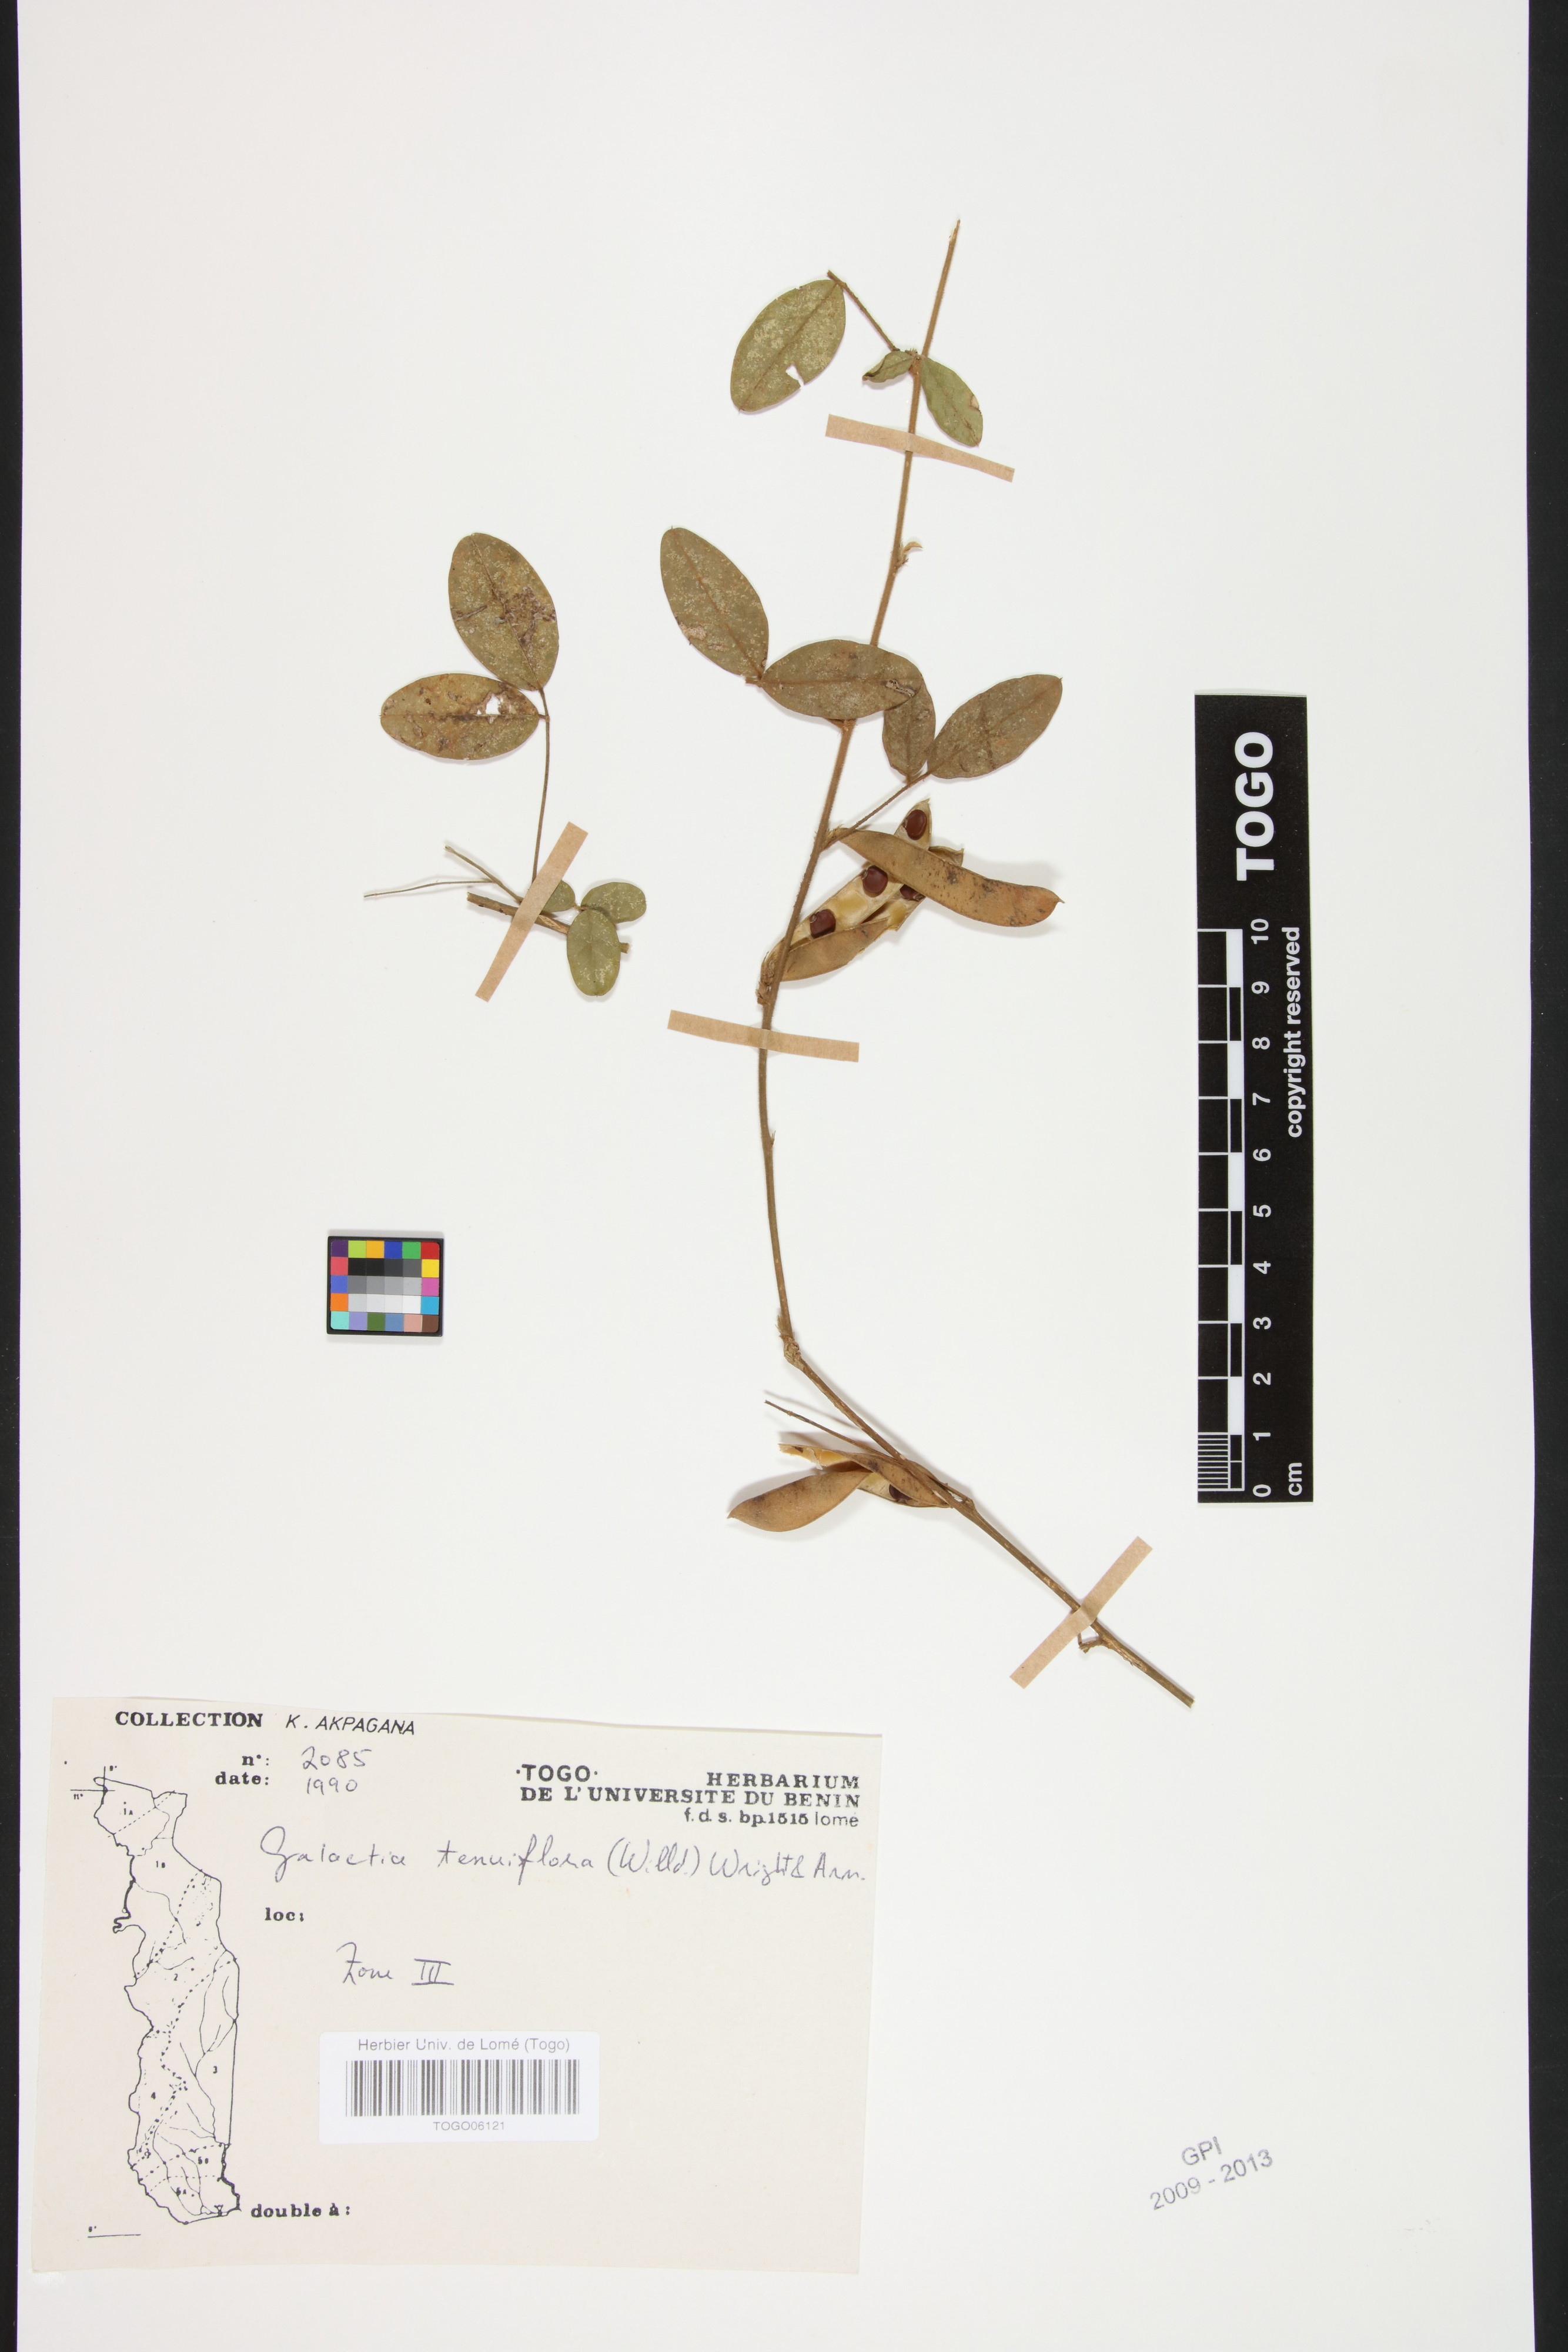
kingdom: Plantae
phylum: Tracheophyta
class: Magnoliopsida
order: Fabales
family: Fabaceae
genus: Galactia
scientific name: Galactia striata
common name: Florida hammock milkpea
